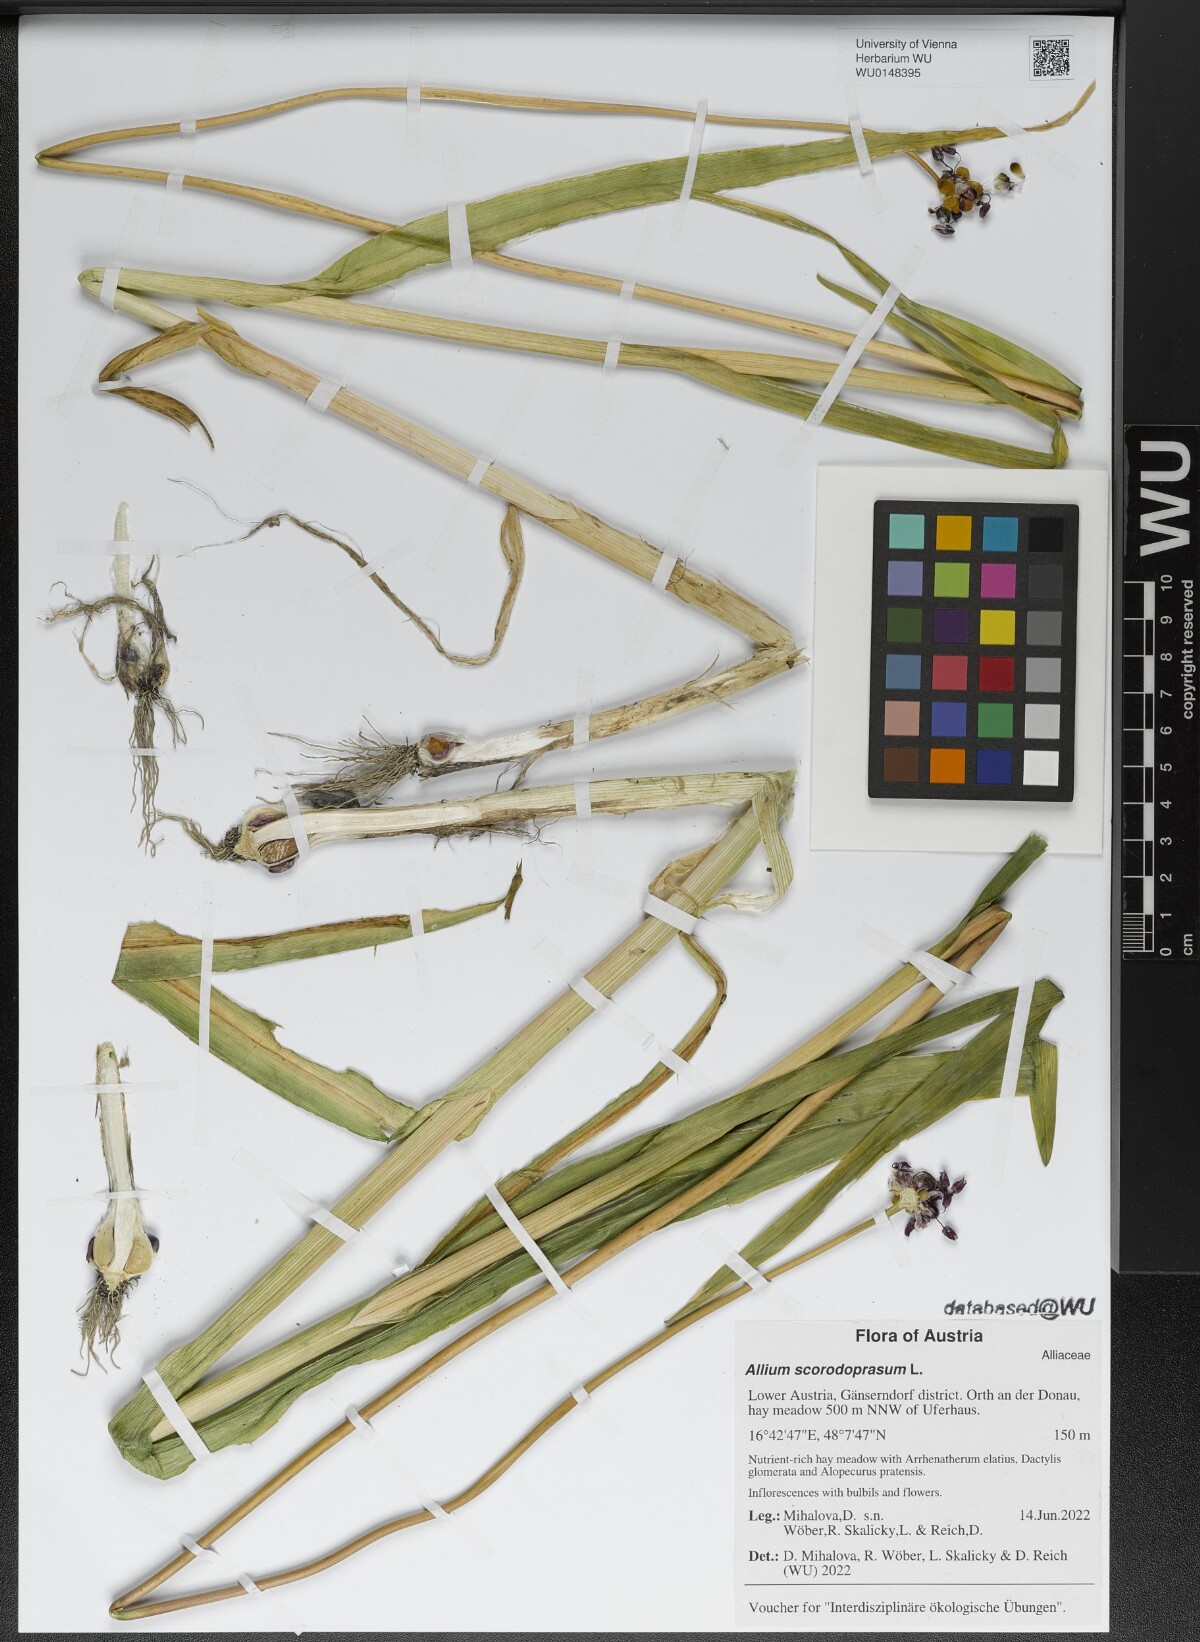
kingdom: Plantae
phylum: Tracheophyta
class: Liliopsida
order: Asparagales
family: Amaryllidaceae
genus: Allium
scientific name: Allium scorodoprasum
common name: Sand leek
